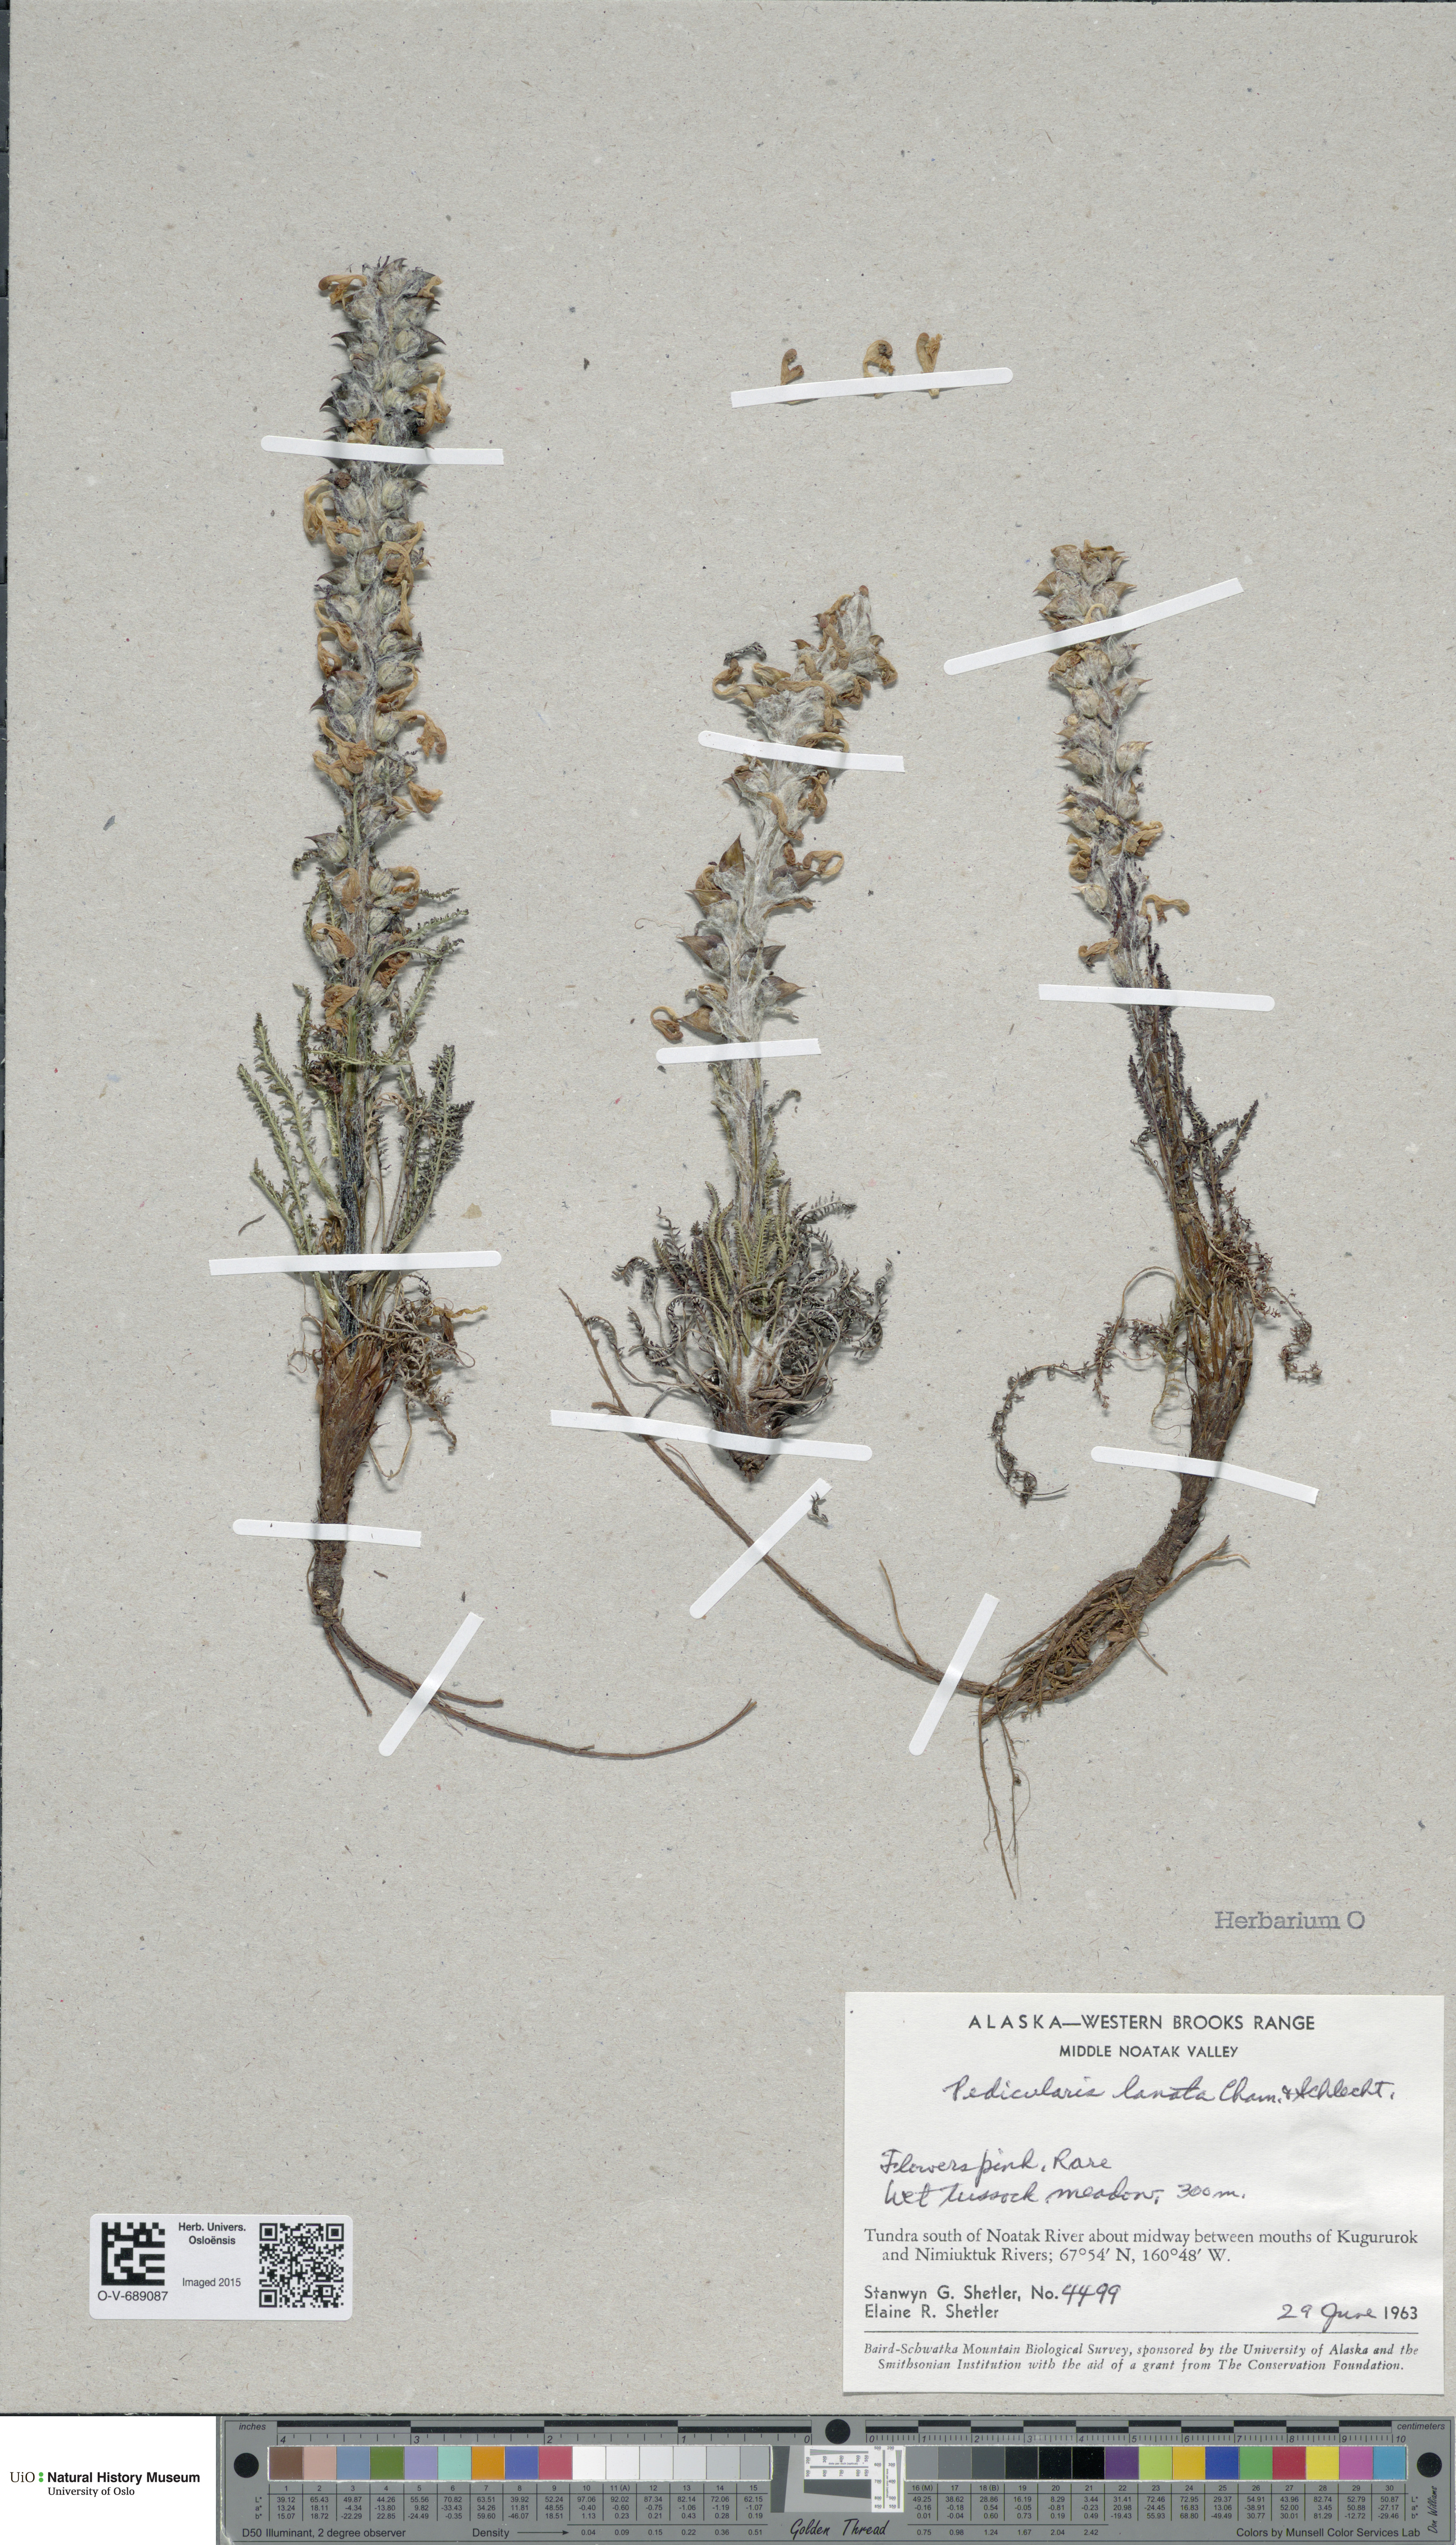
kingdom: Plantae
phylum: Tracheophyta
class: Magnoliopsida
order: Lamiales
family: Orobanchaceae
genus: Pedicularis
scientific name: Pedicularis lanata
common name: Woolly lousewort
